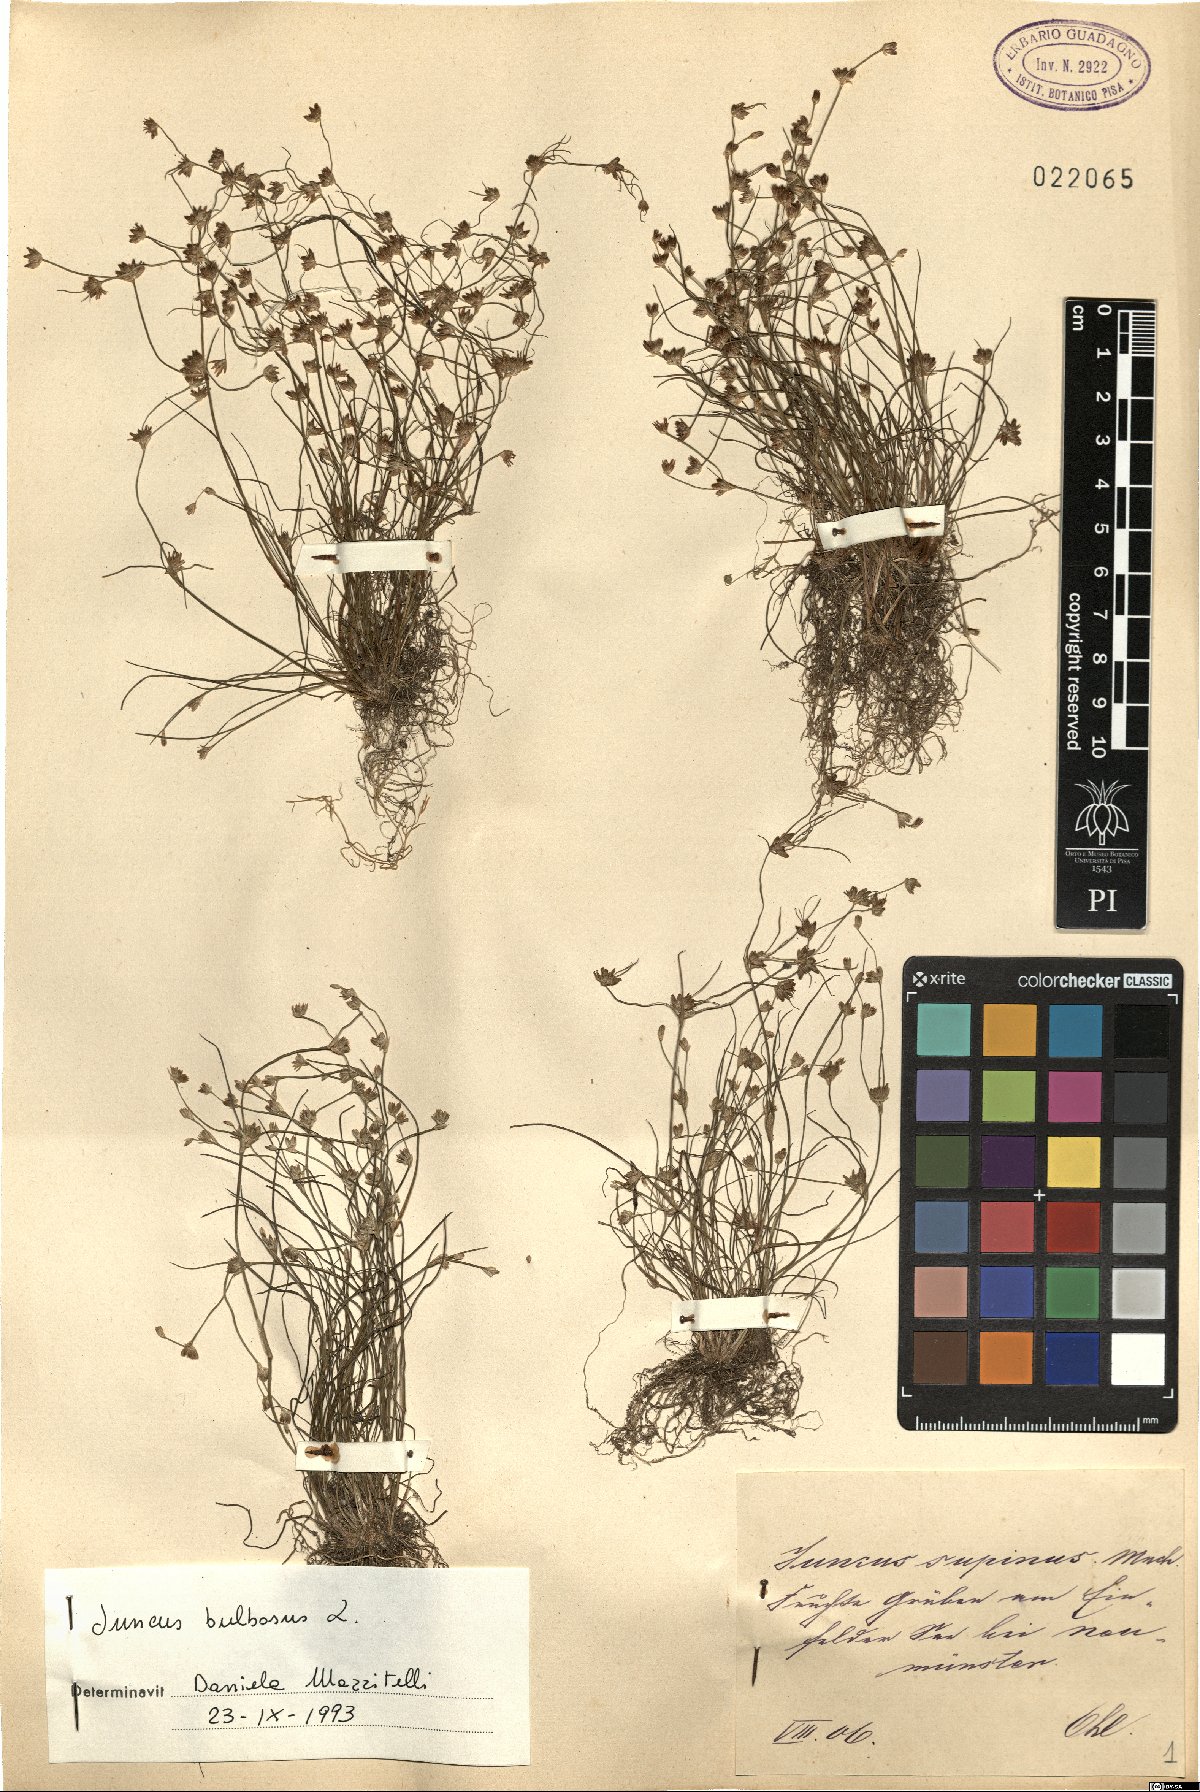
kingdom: Plantae
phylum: Tracheophyta
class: Liliopsida
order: Poales
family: Juncaceae
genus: Juncus
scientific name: Juncus bulbosus
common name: Bulbous rush
